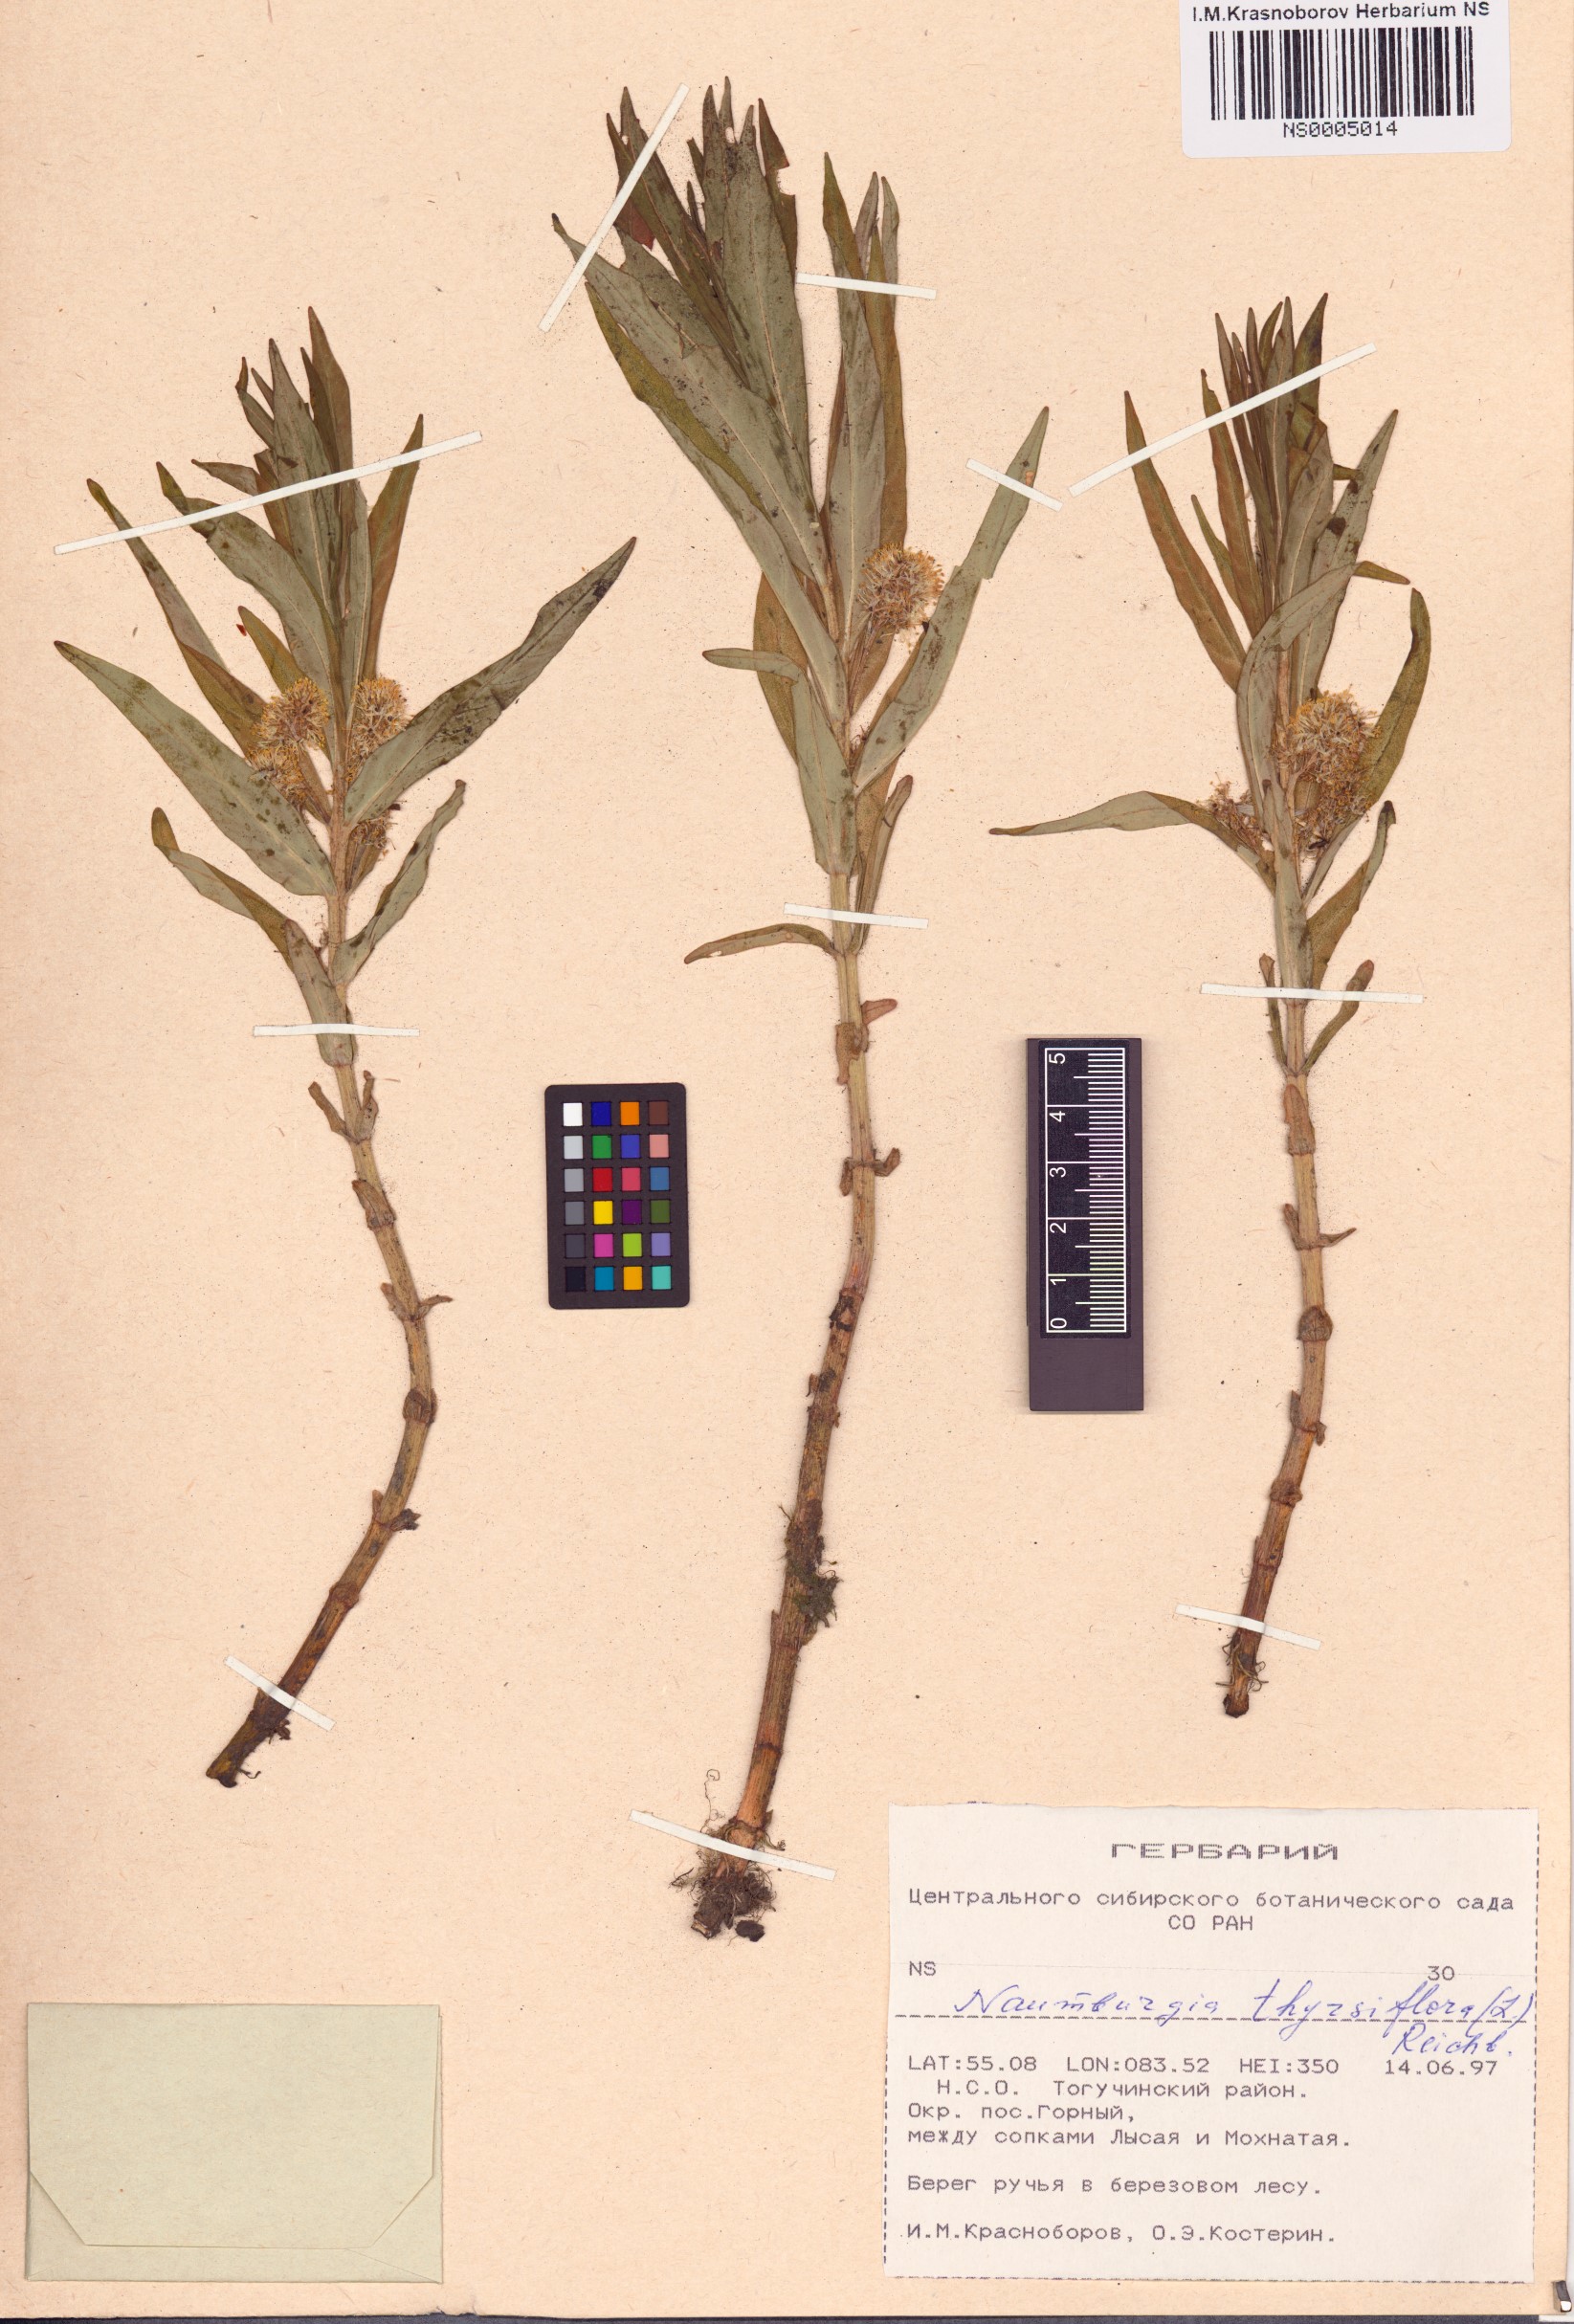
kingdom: Plantae
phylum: Tracheophyta
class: Magnoliopsida
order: Ericales
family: Primulaceae
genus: Lysimachia
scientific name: Lysimachia thyrsiflora
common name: Tufted loosestrife
